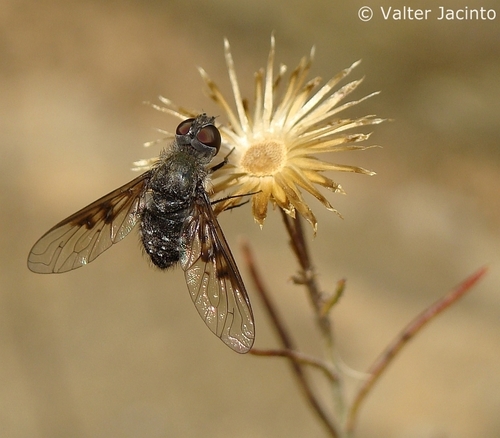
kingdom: Animalia
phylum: Arthropoda
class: Insecta
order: Diptera
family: Bombyliidae
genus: Anthrax
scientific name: Anthrax trifasciatus
